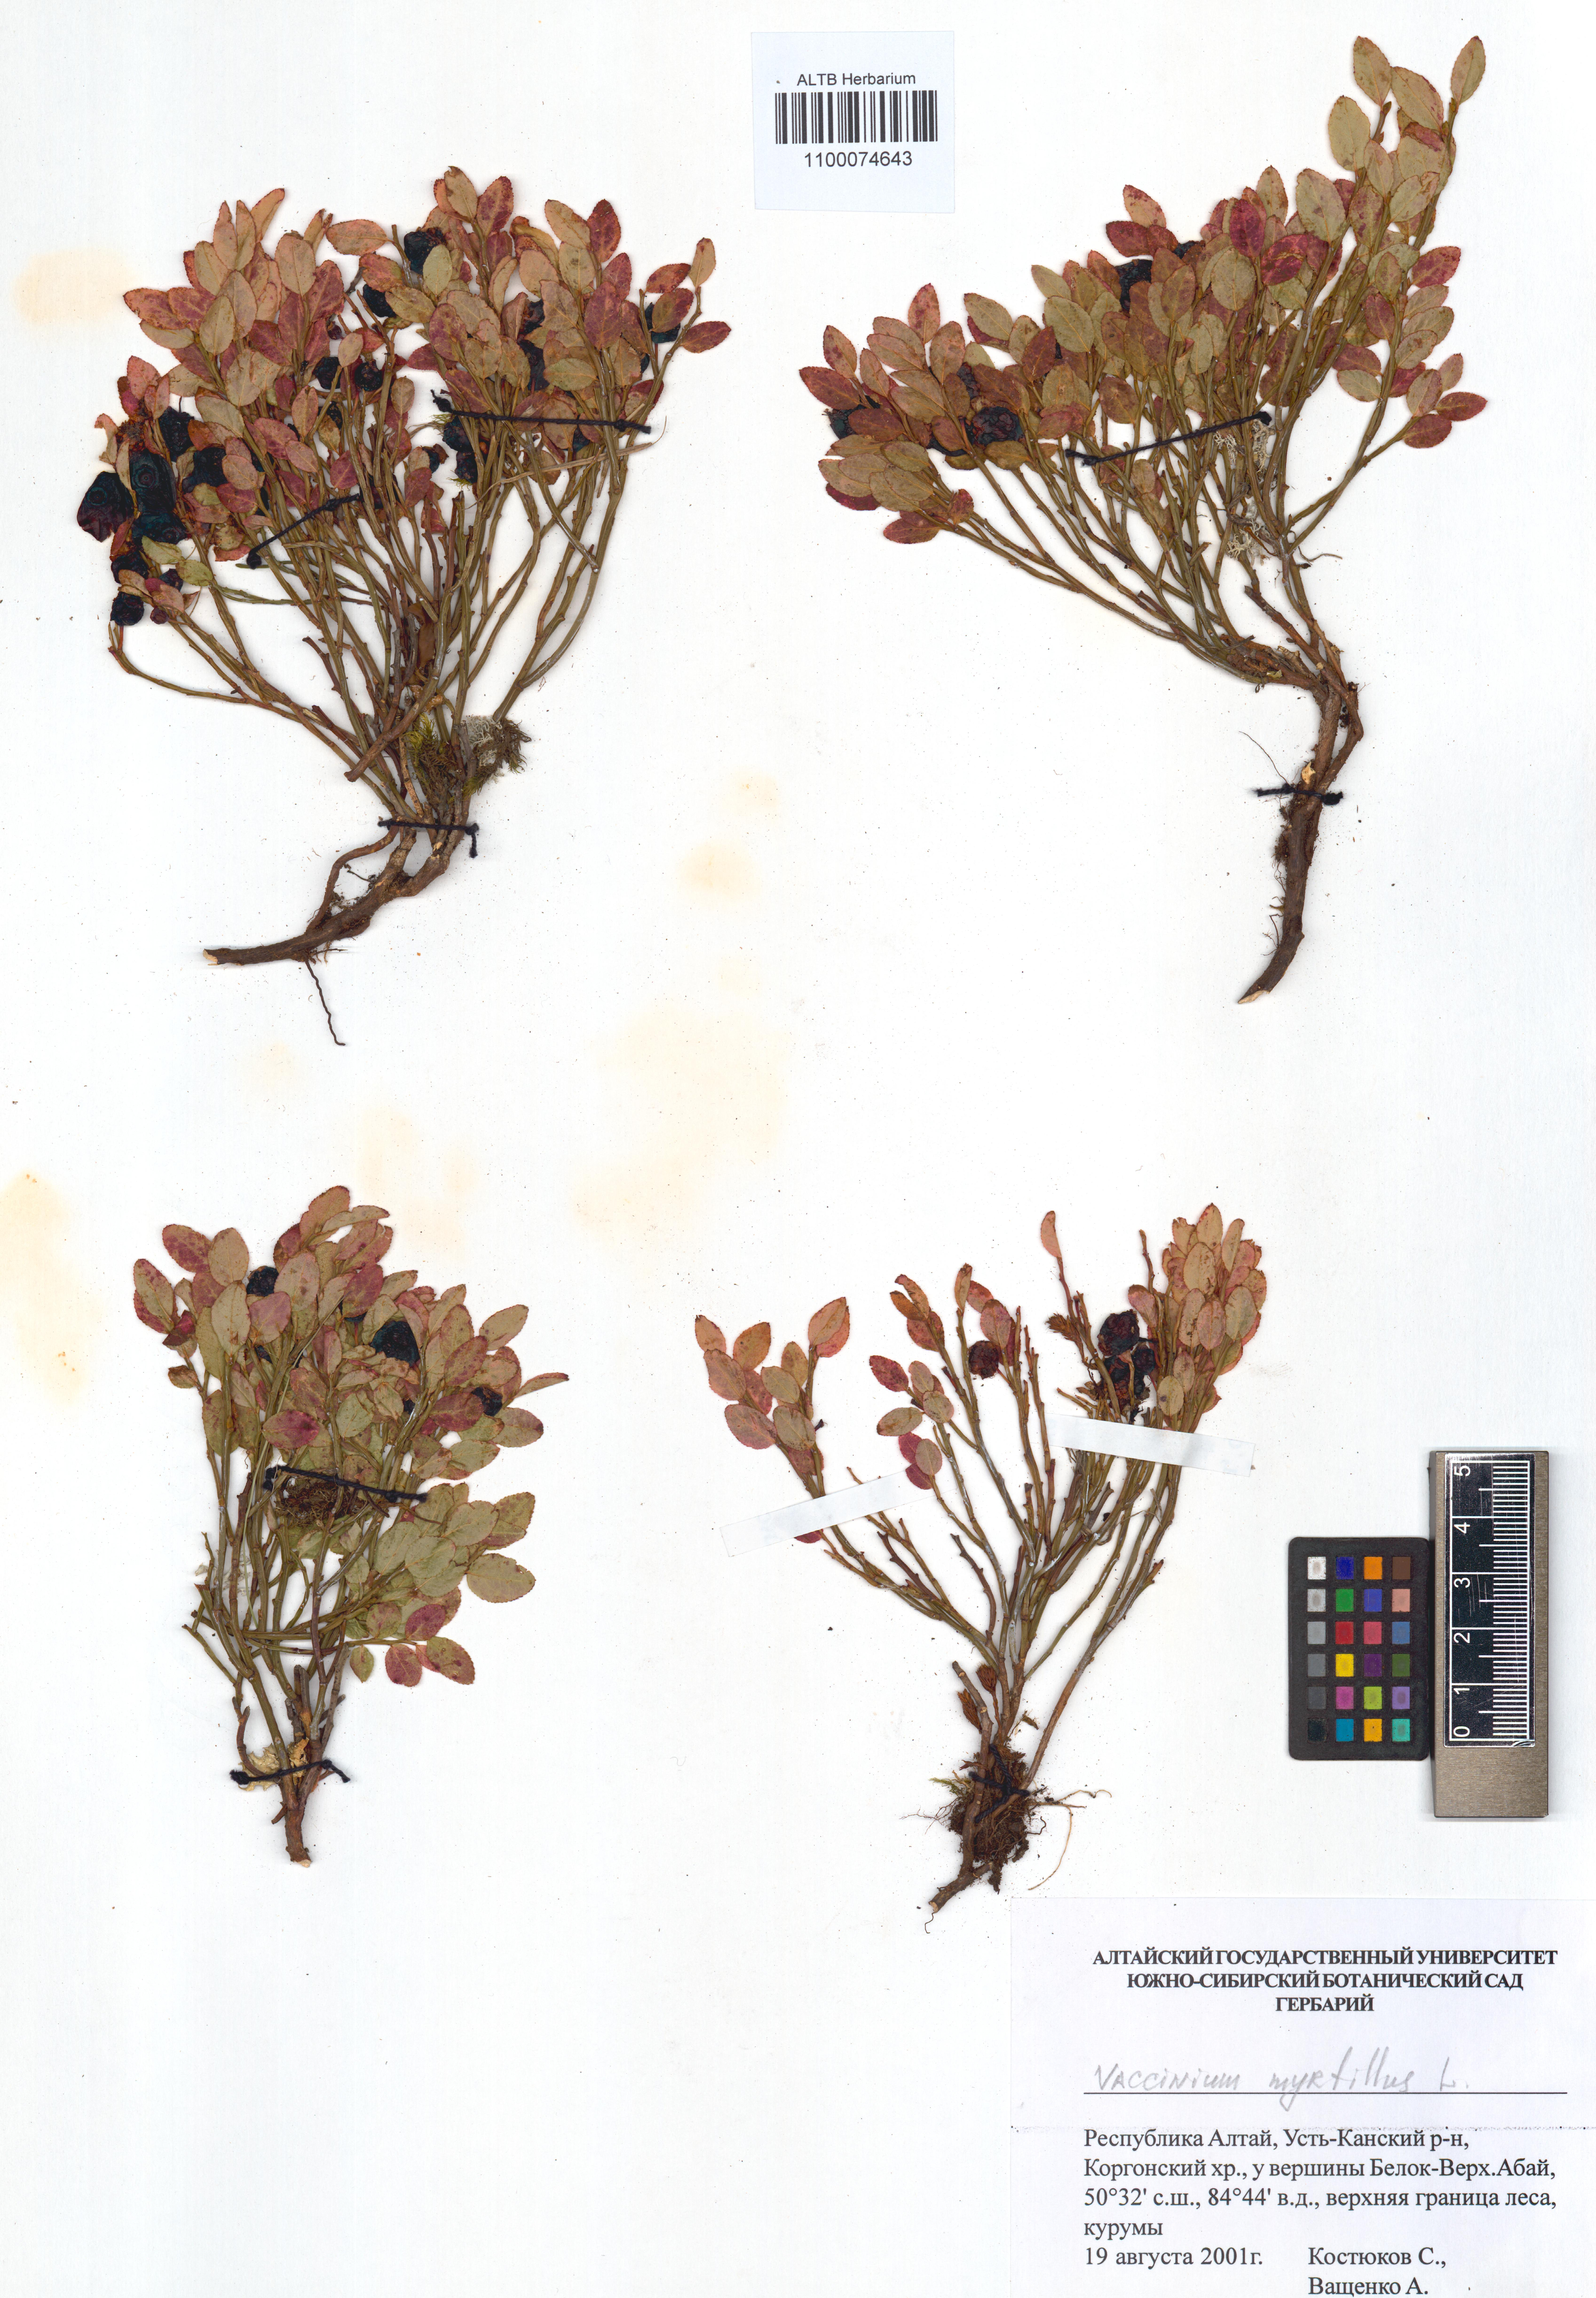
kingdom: Plantae
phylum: Tracheophyta
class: Magnoliopsida
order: Ericales
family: Ericaceae
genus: Vaccinium
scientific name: Vaccinium myrtillus
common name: Bilberry
